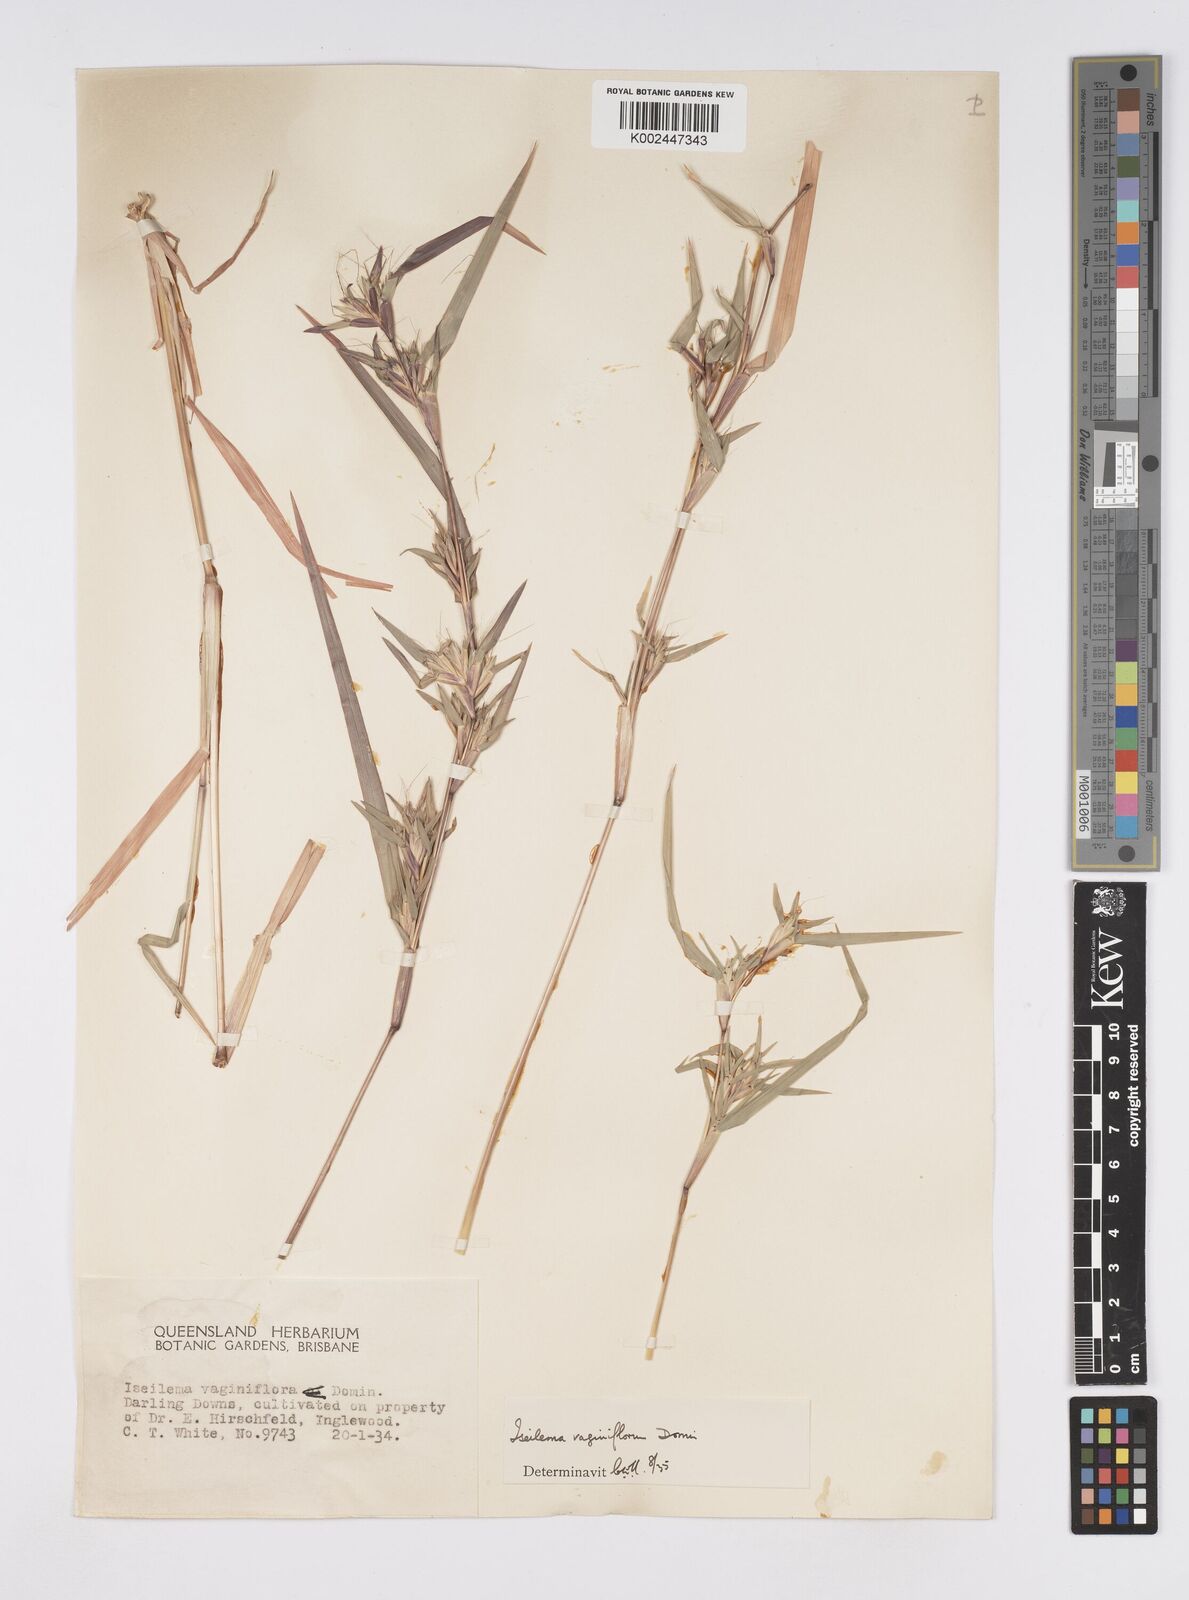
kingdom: Plantae
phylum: Tracheophyta
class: Liliopsida
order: Poales
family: Poaceae
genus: Iseilema
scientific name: Iseilema vaginiflorum
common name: Red flinders grass
